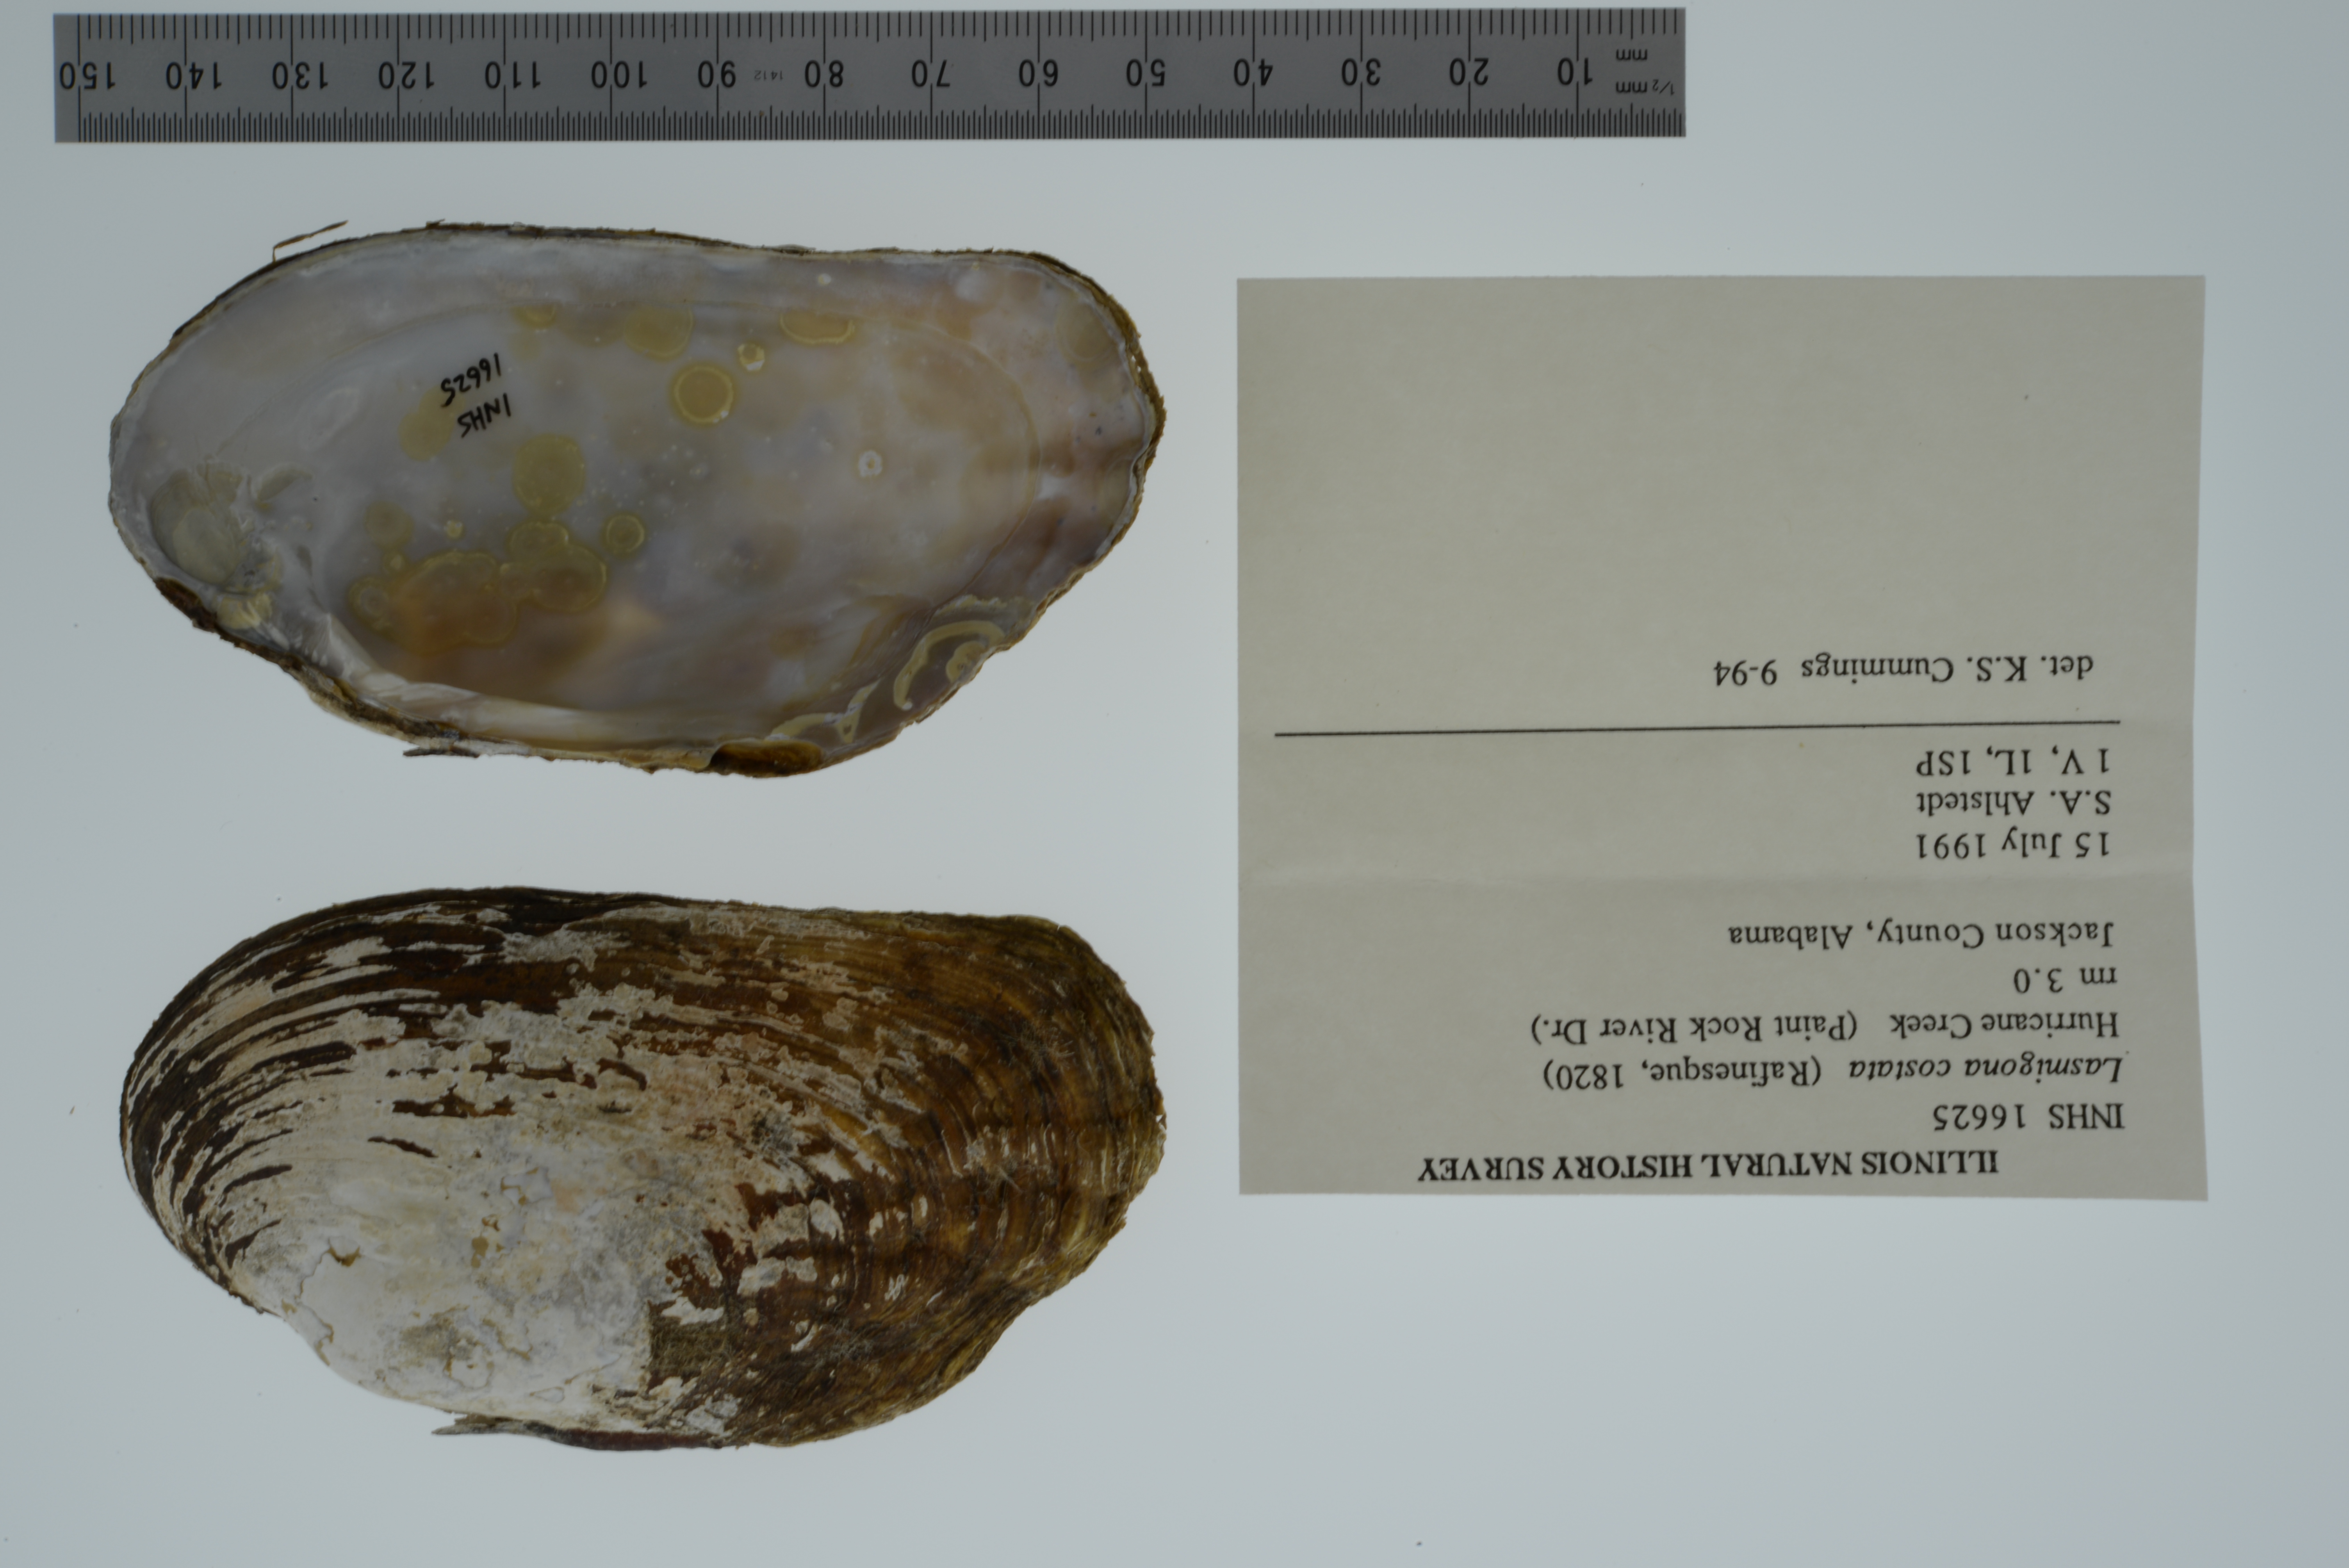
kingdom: Animalia
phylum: Mollusca
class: Bivalvia
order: Unionida
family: Unionidae
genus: Lasmigona
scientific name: Lasmigona costata
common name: Flutedshell
